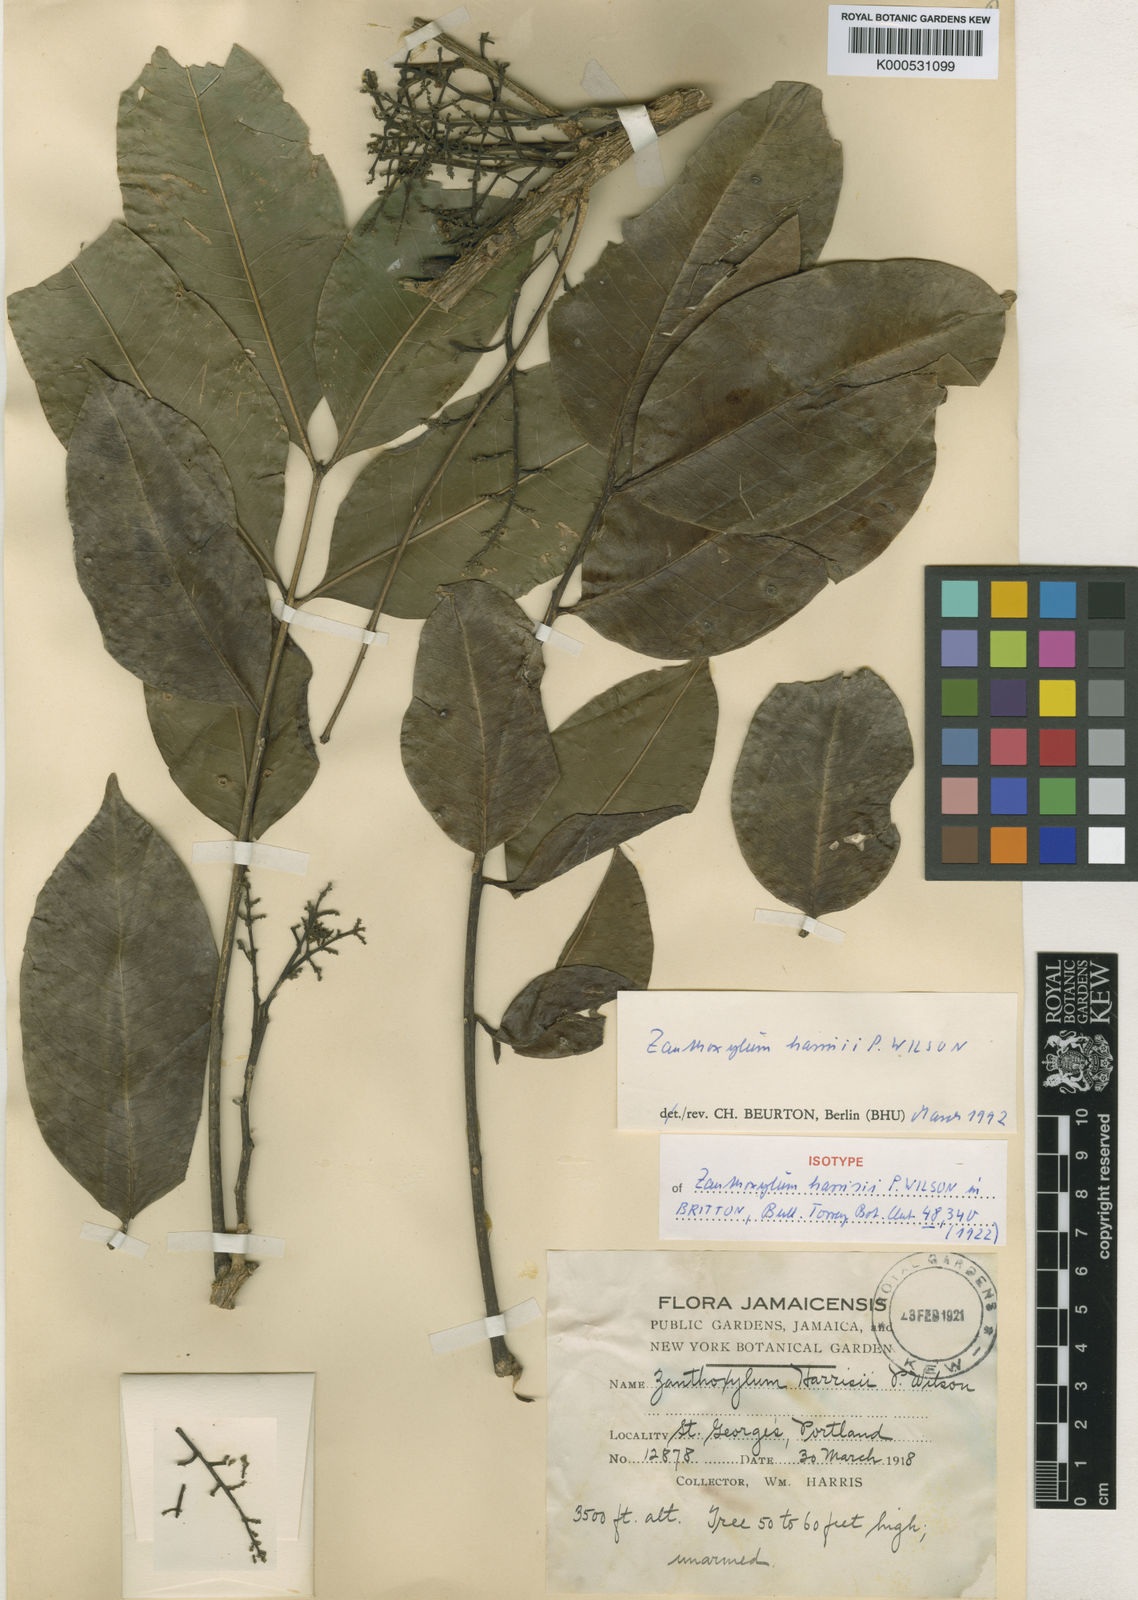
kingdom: Plantae
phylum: Tracheophyta
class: Magnoliopsida
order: Sapindales
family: Rutaceae
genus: Zanthoxylum
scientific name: Zanthoxylum riedelianum
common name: White copal
